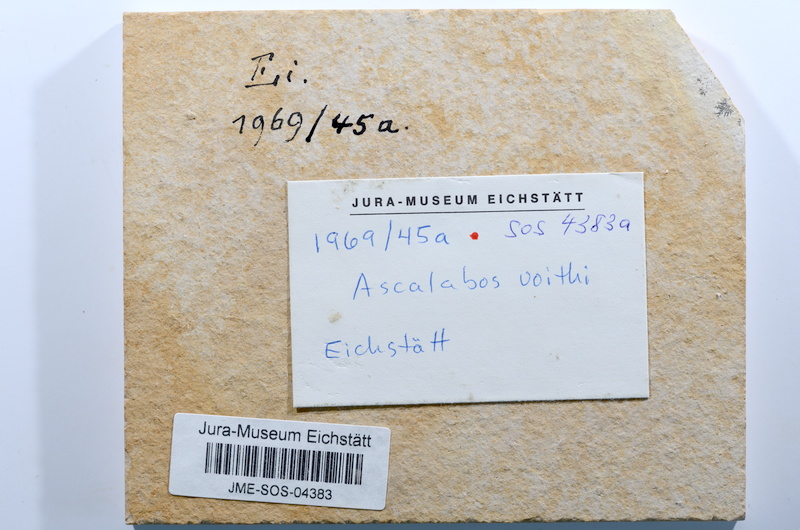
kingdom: Animalia
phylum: Chordata
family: Ascalaboidae
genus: Ascalabos
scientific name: Ascalabos voithii
